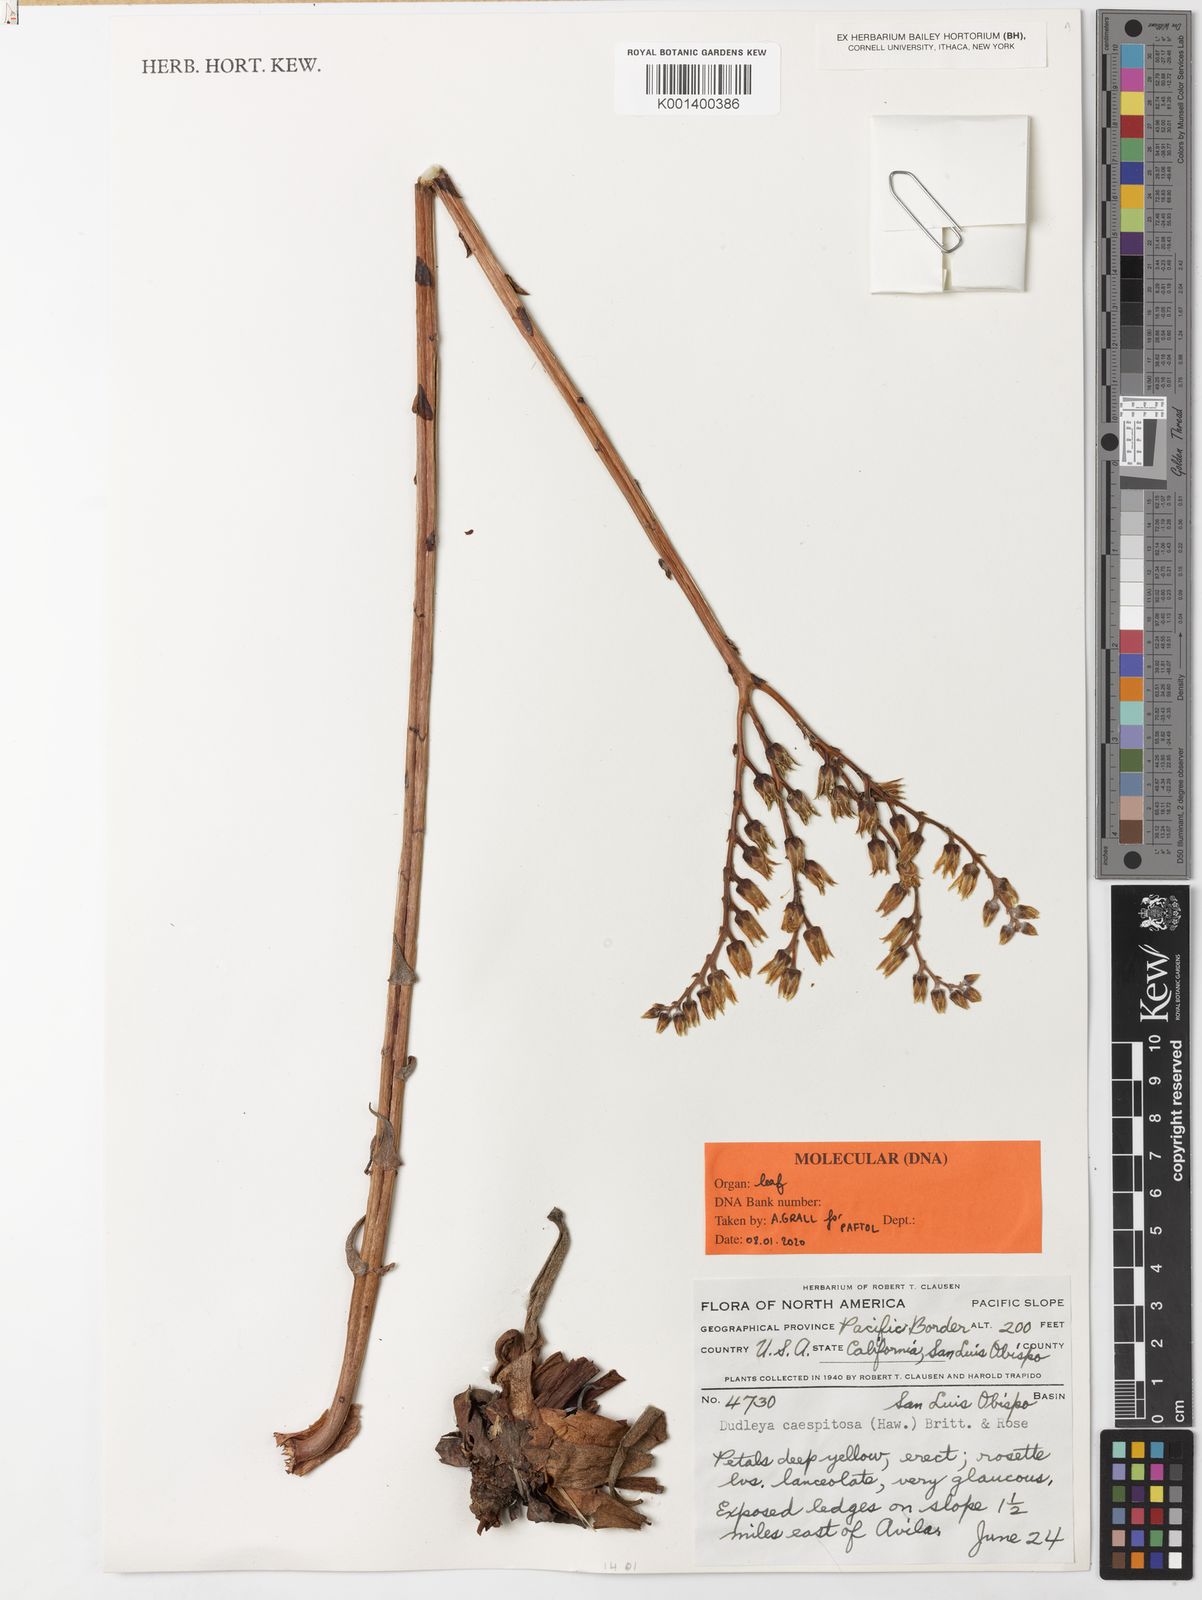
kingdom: Plantae
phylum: Tracheophyta
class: Magnoliopsida
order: Saxifragales
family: Crassulaceae
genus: Dudleya
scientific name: Dudleya caespitosa
